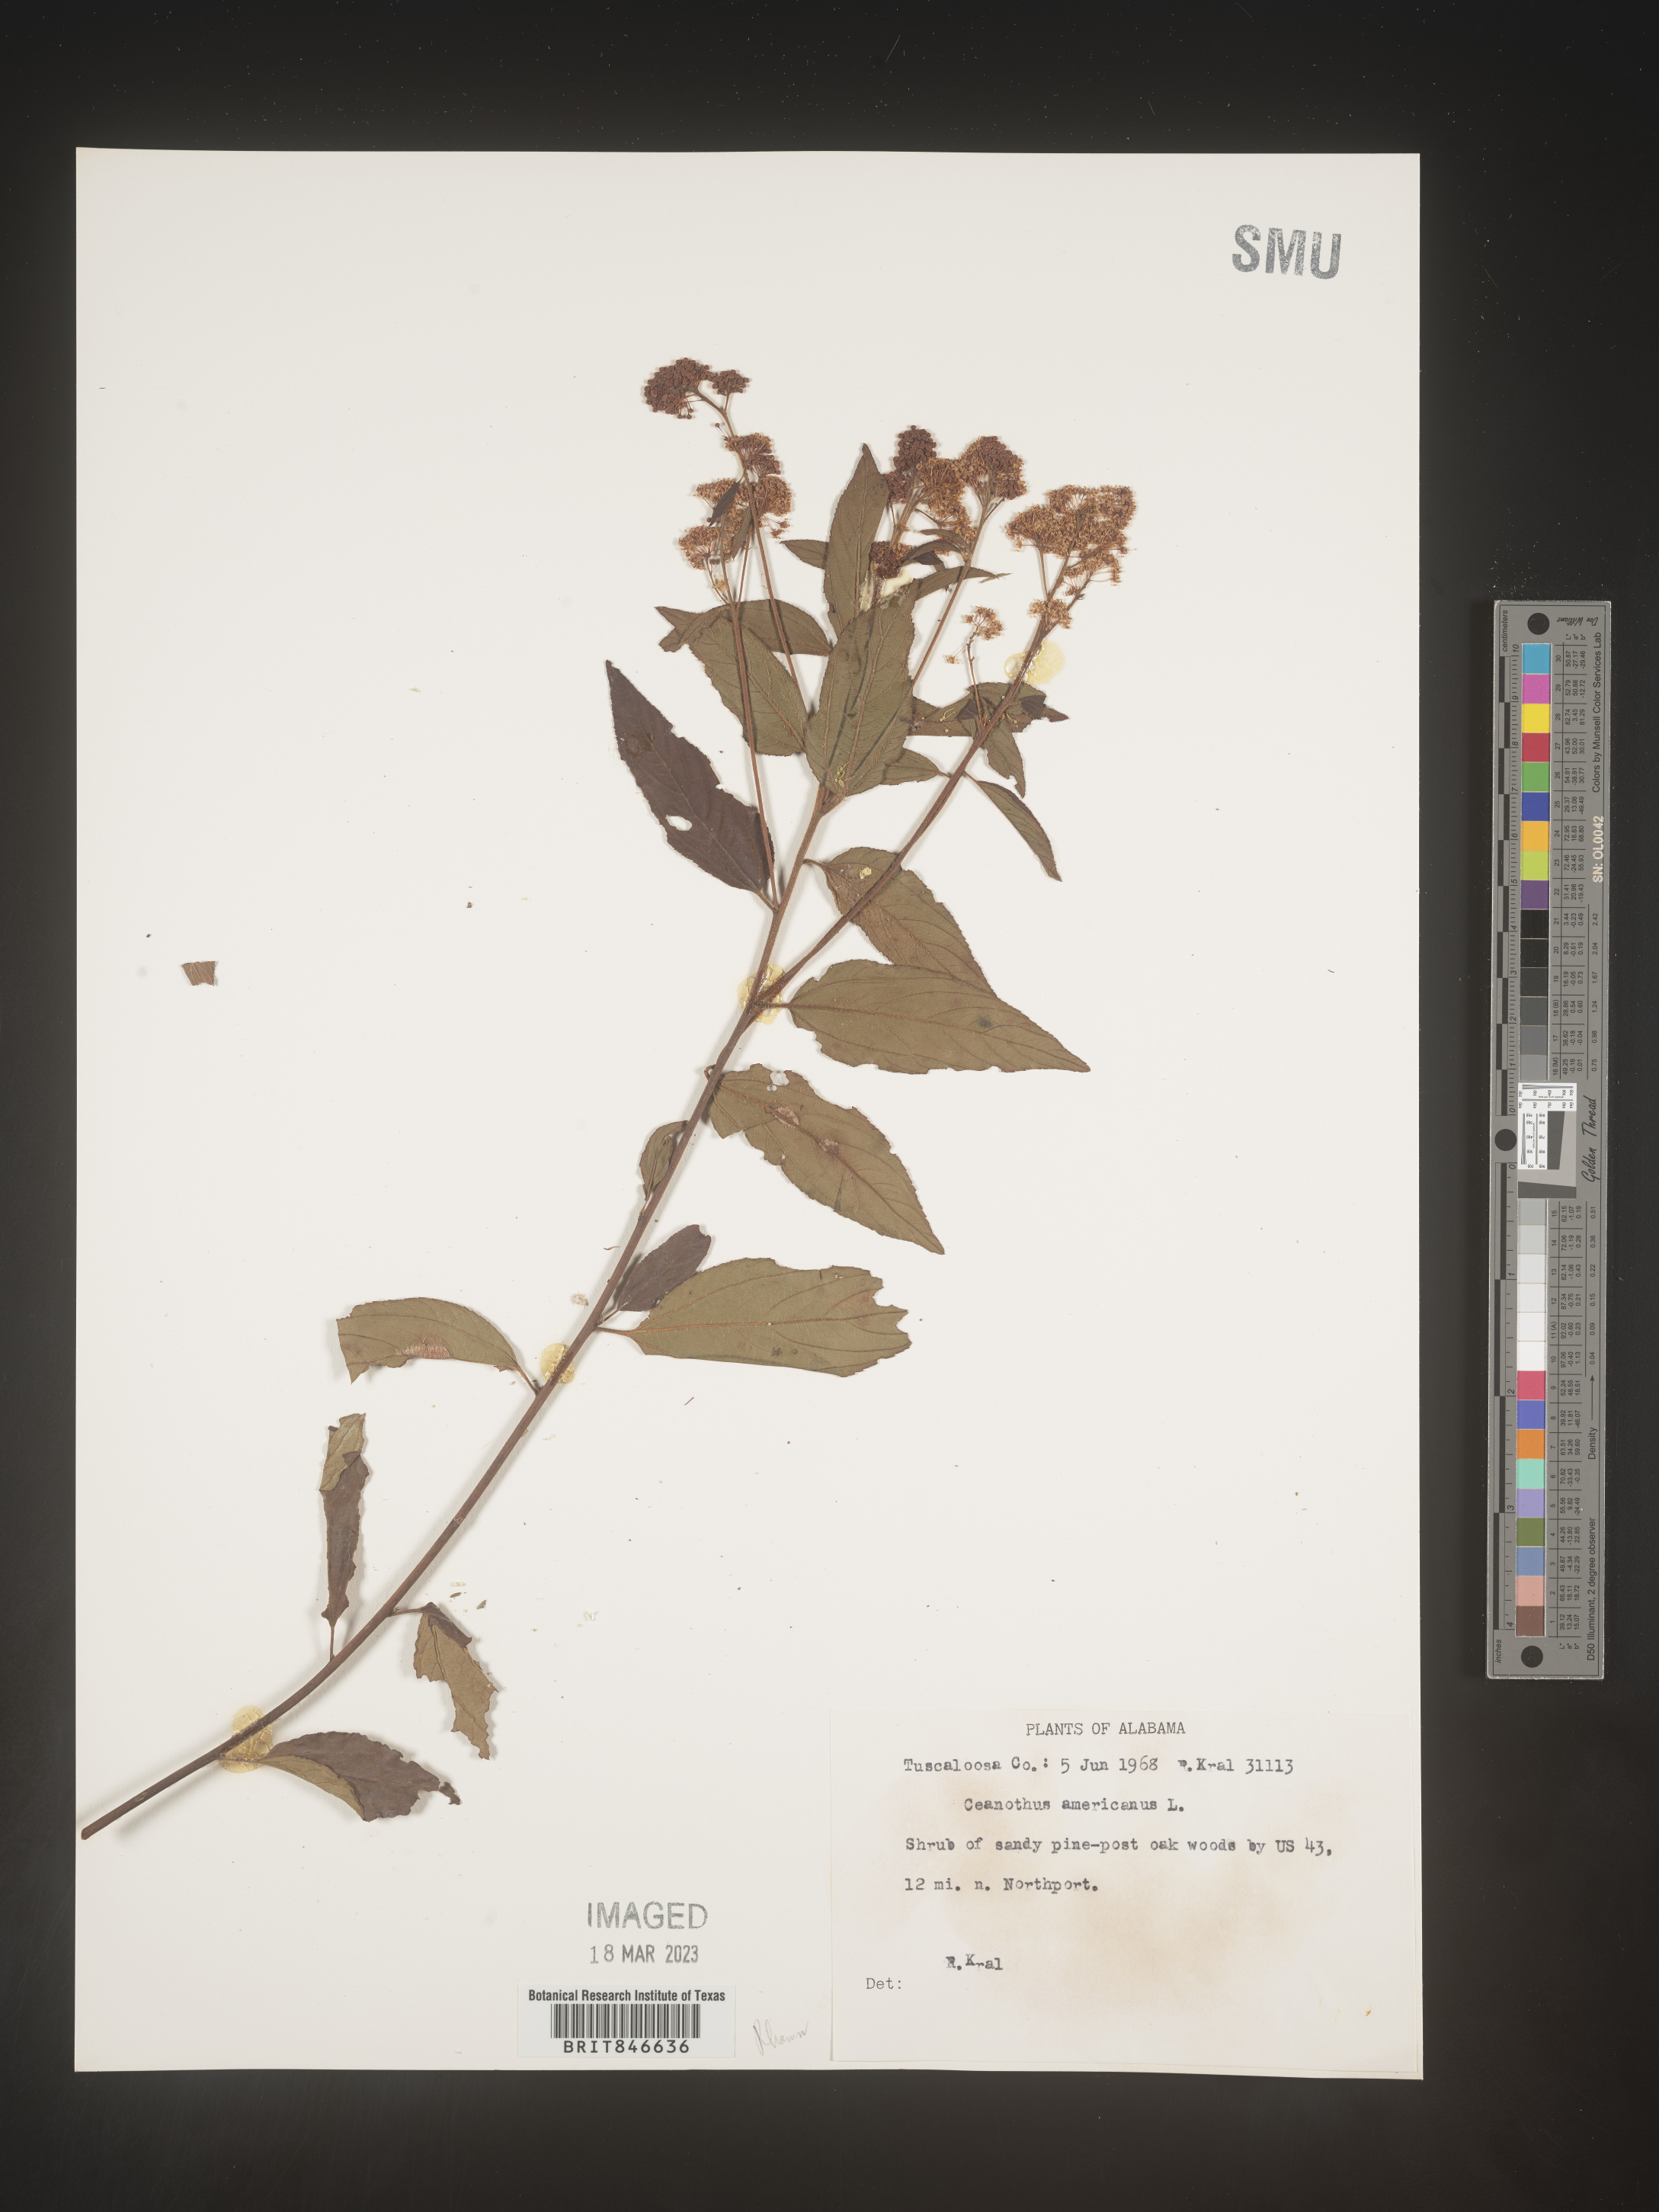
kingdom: Plantae
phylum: Tracheophyta
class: Magnoliopsida
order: Rosales
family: Rhamnaceae
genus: Ceanothus
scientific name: Ceanothus americanus
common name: Redroot
